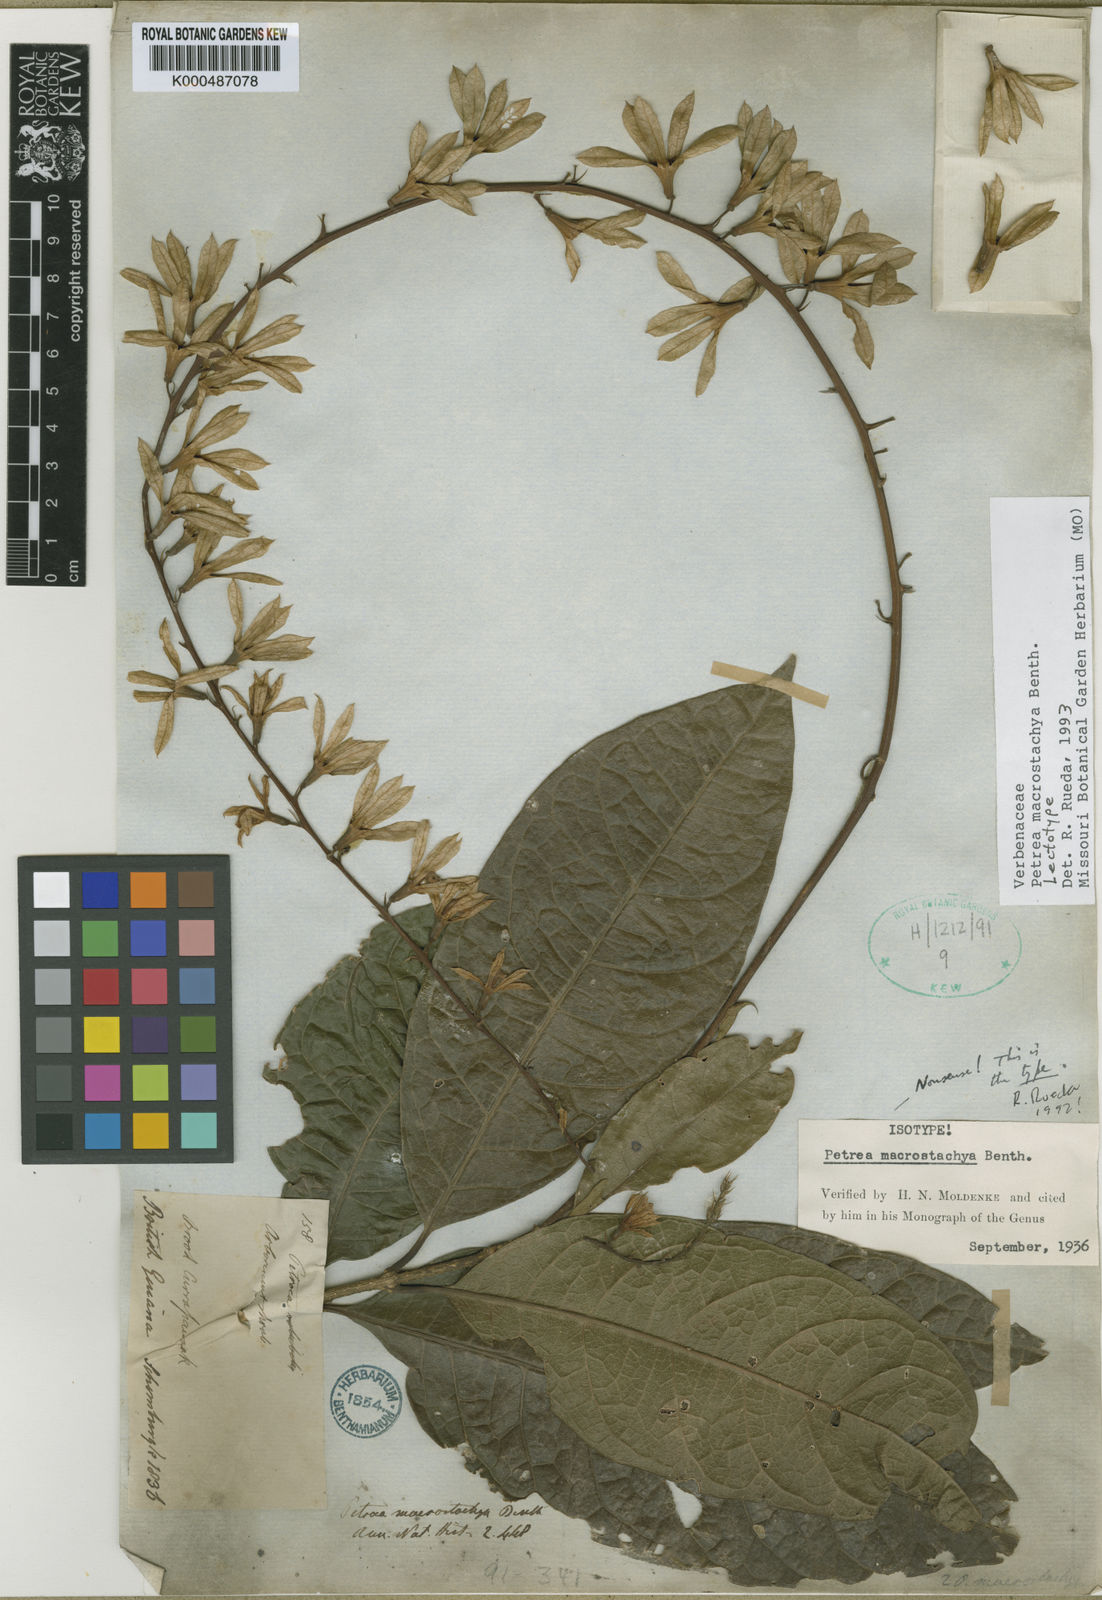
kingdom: Plantae
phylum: Tracheophyta
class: Magnoliopsida
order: Lamiales
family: Verbenaceae
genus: Petrea
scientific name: Petrea macrostachya
